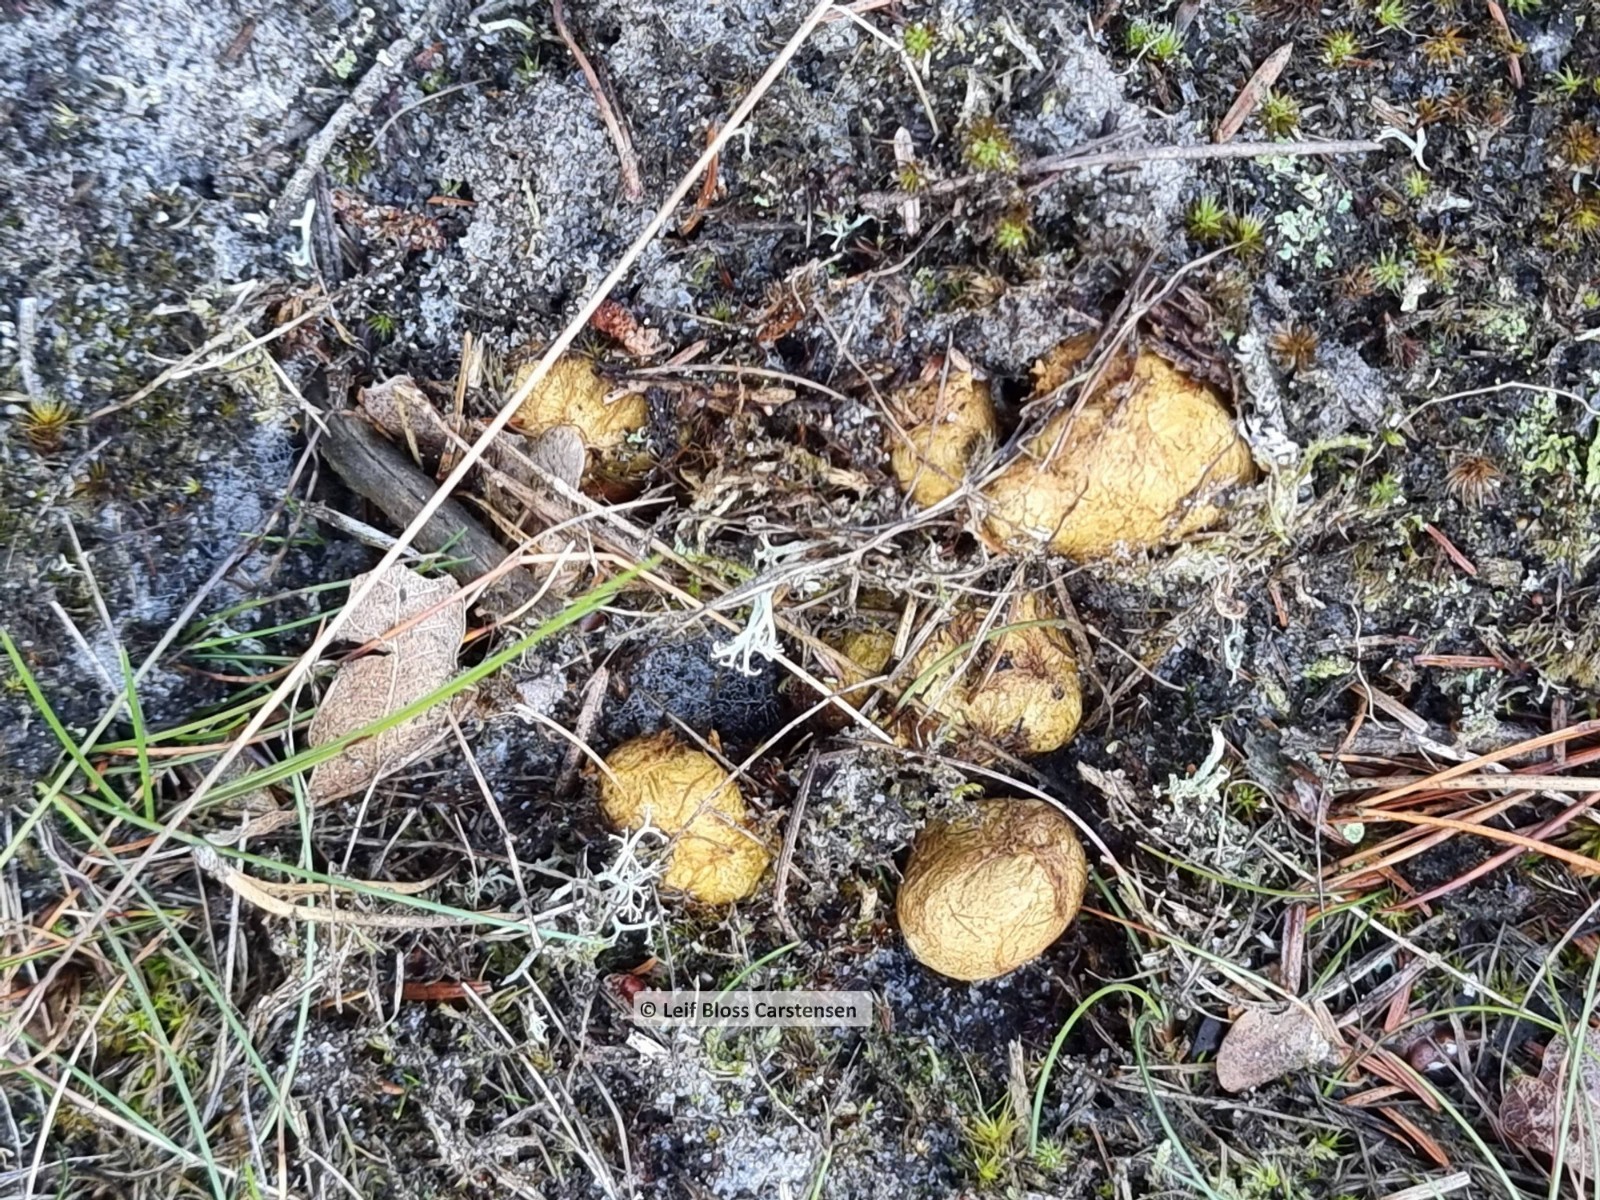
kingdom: Fungi
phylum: Basidiomycota
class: Agaricomycetes
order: Boletales
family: Rhizopogonaceae
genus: Rhizopogon
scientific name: Rhizopogon obtextus
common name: gul skægtrøffel
